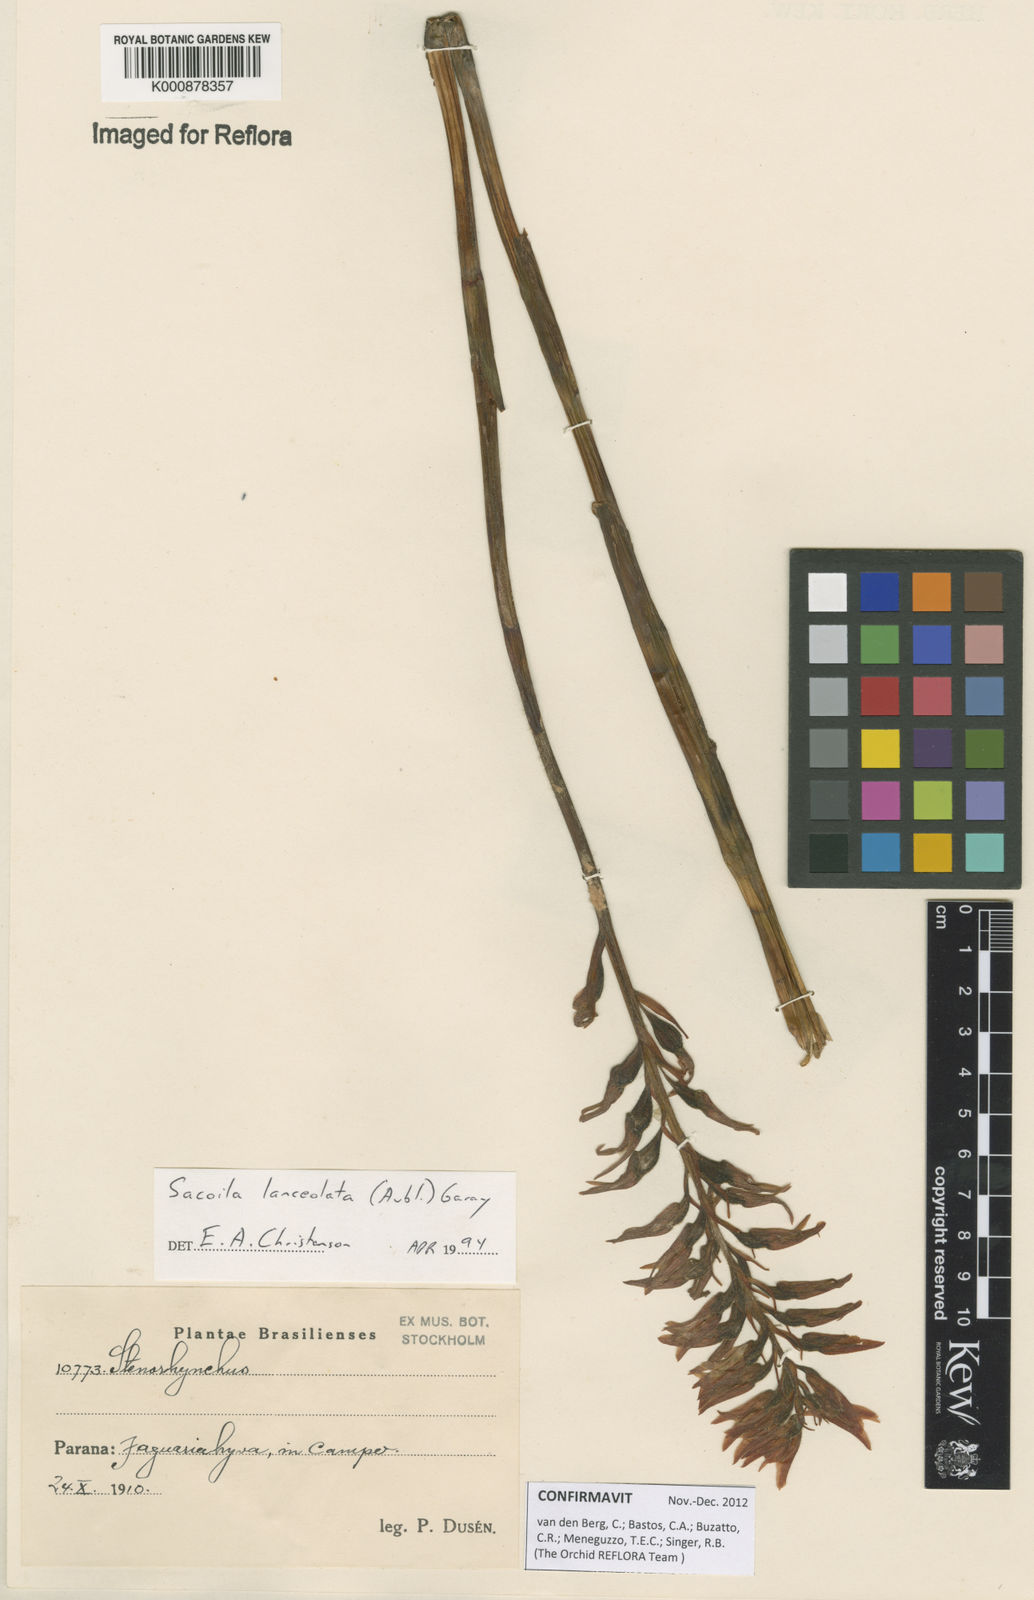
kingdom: Plantae
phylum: Tracheophyta
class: Liliopsida
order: Asparagales
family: Orchidaceae
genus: Sacoila
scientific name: Sacoila lanceolata
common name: Leafless beaked ladiestresses
